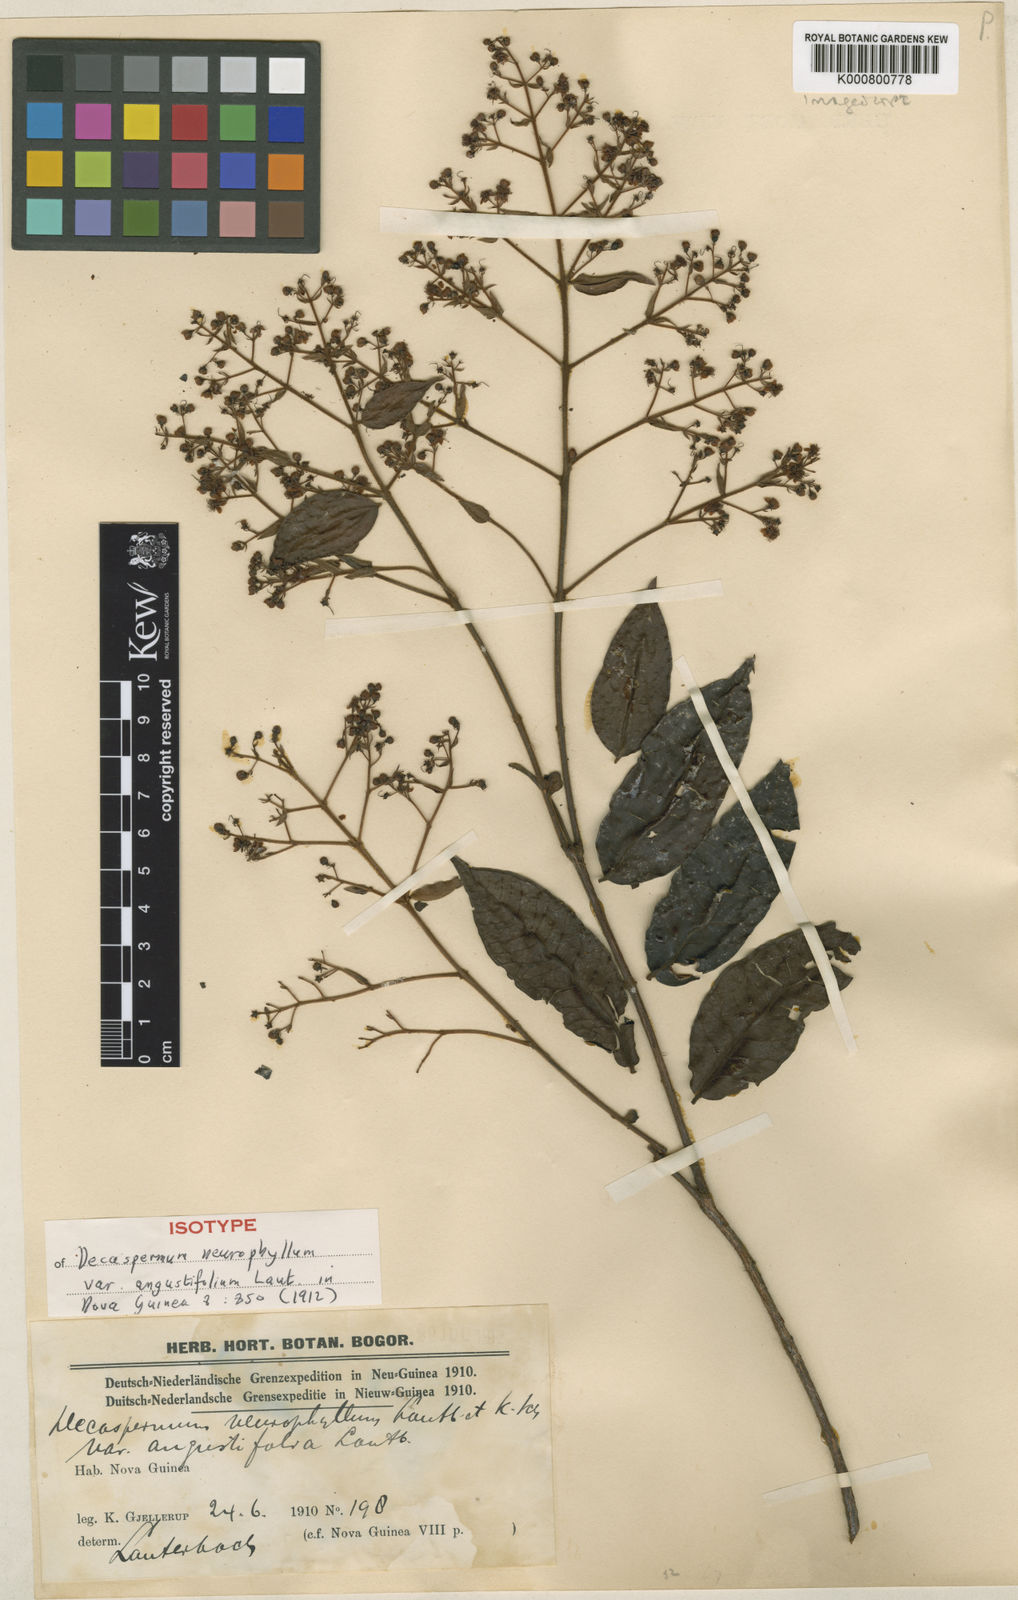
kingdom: Plantae
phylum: Tracheophyta
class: Magnoliopsida
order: Myrtales
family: Myrtaceae
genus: Decaspermum
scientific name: Decaspermum neurophyllum
